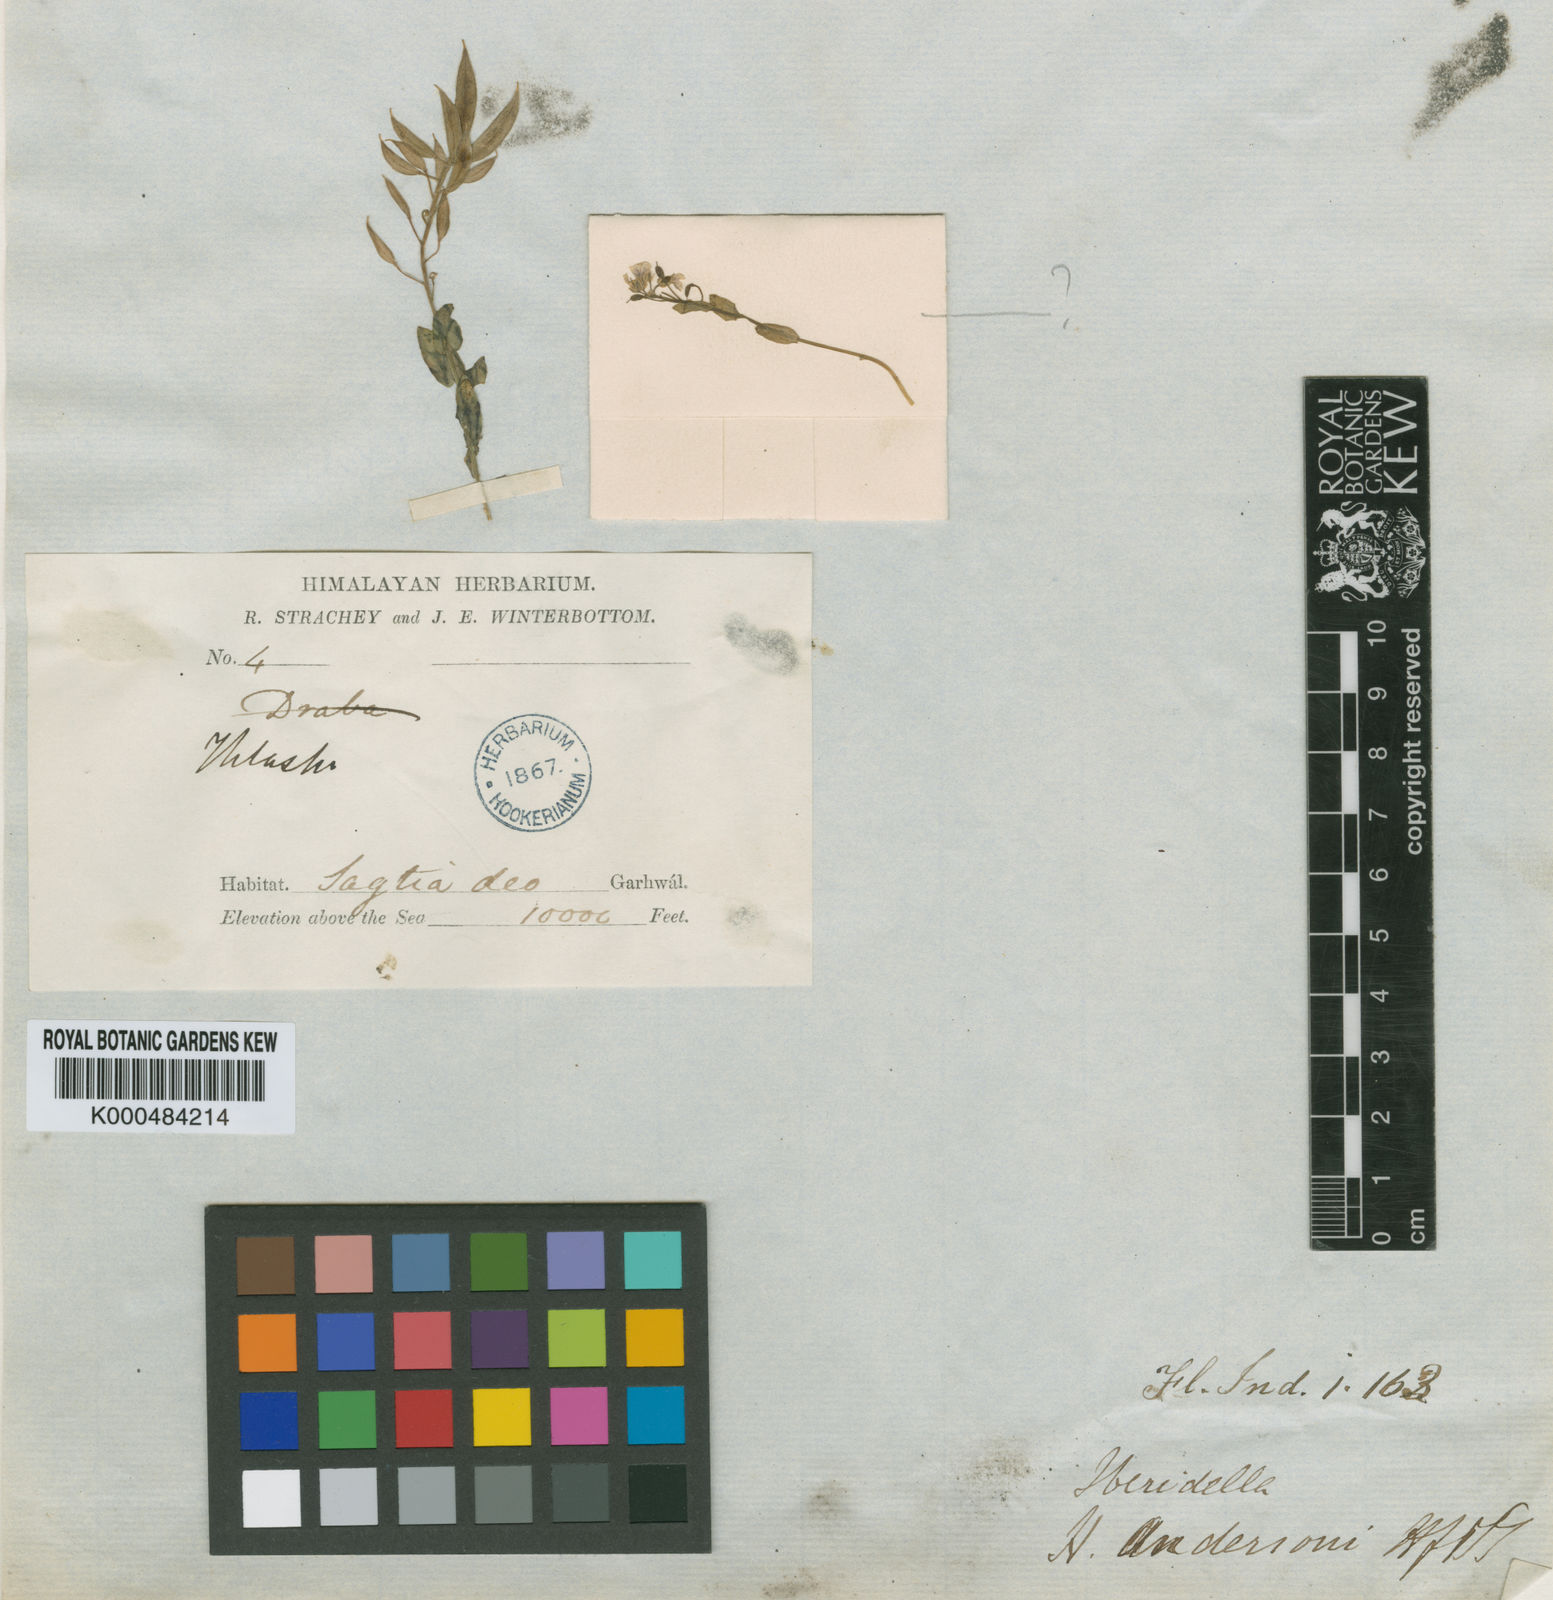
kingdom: Plantae
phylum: Tracheophyta
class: Magnoliopsida
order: Brassicales
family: Brassicaceae
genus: Aethionema
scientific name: Aethionema
